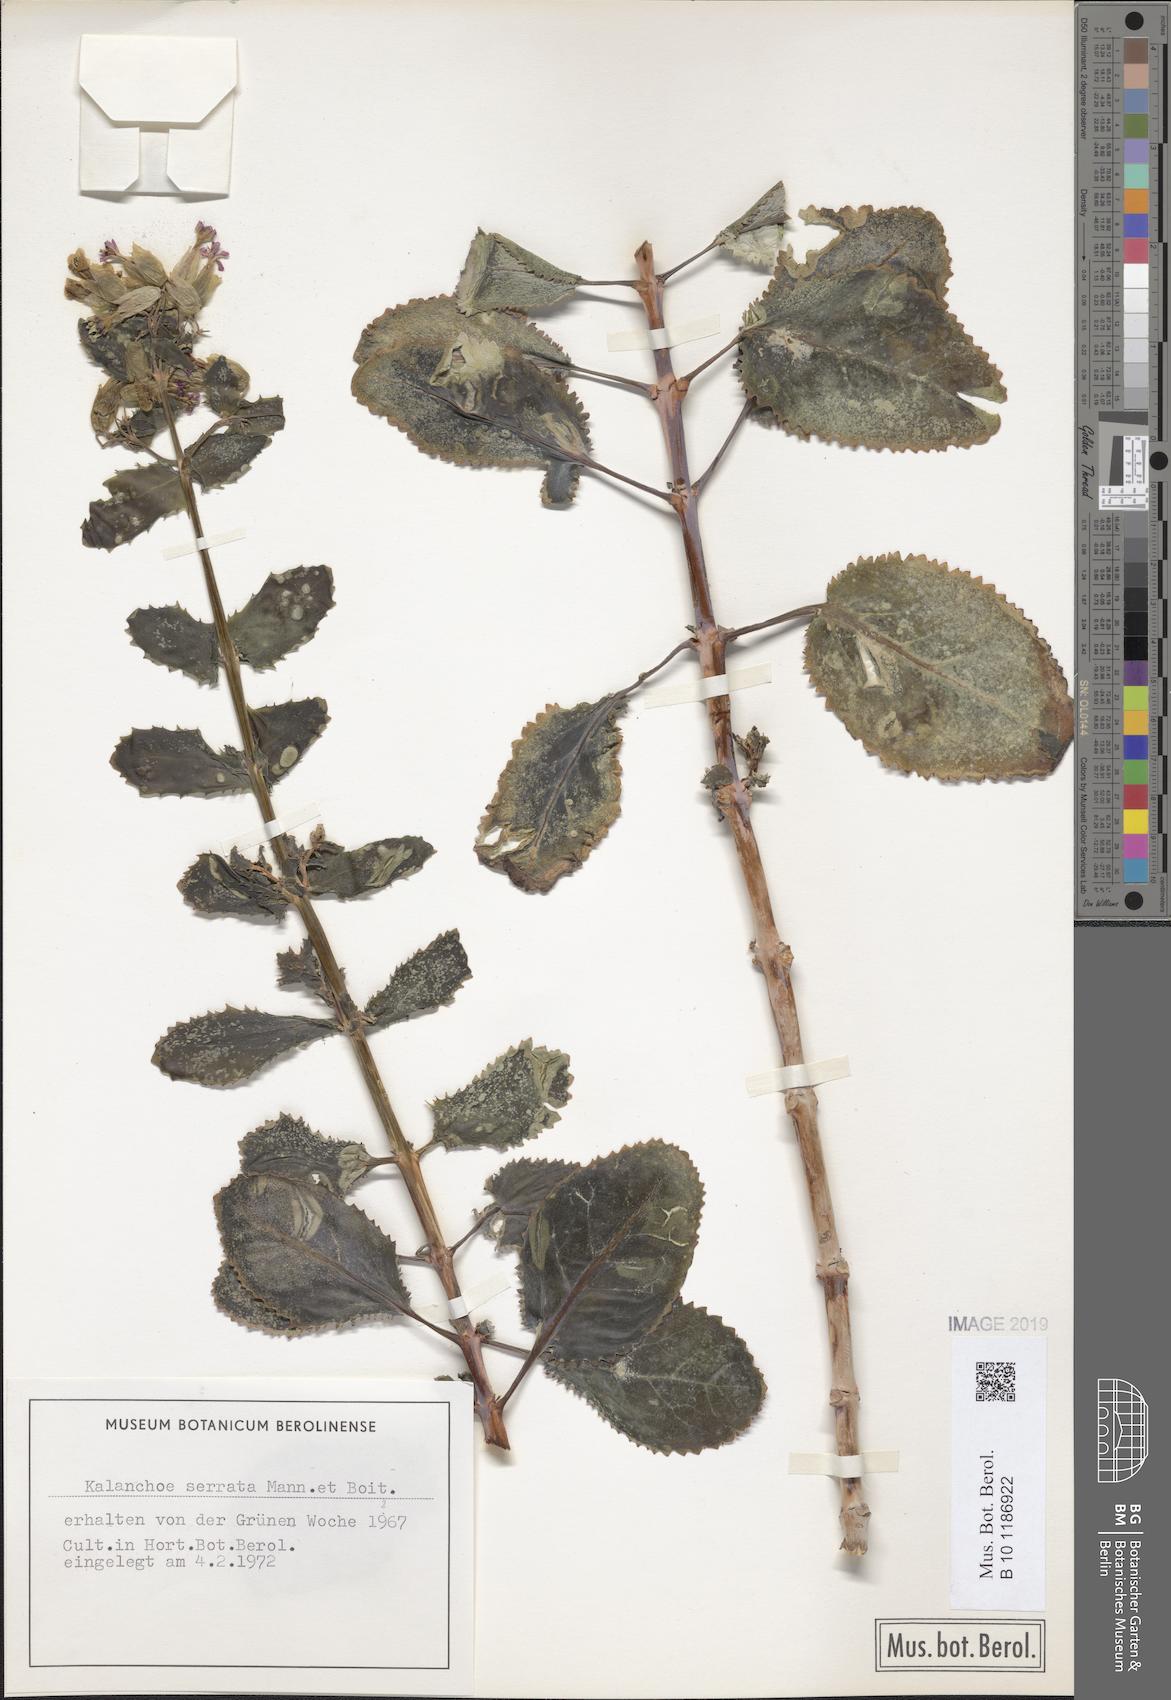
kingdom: Plantae
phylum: Tracheophyta
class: Magnoliopsida
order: Saxifragales
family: Crassulaceae
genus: Kalanchoe
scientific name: Kalanchoe serrata
